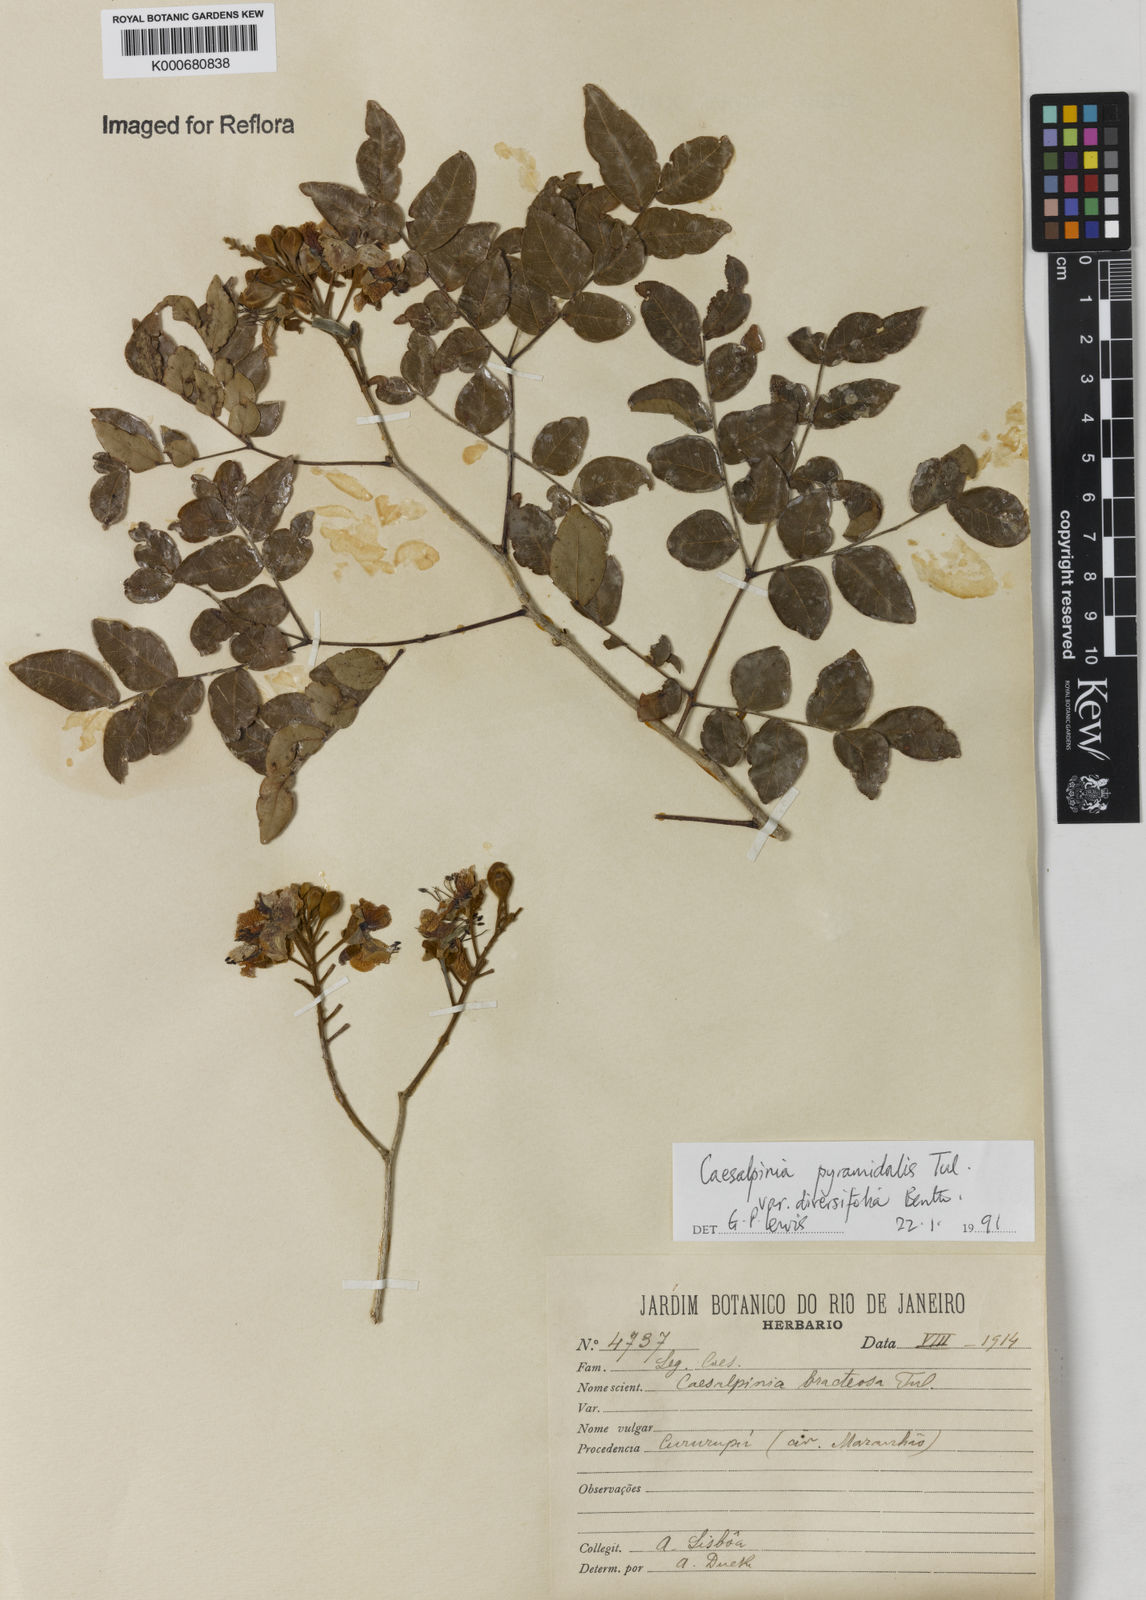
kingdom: Plantae
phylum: Tracheophyta
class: Magnoliopsida
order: Fabales
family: Fabaceae
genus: Cenostigma
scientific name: Cenostigma diversifolium
